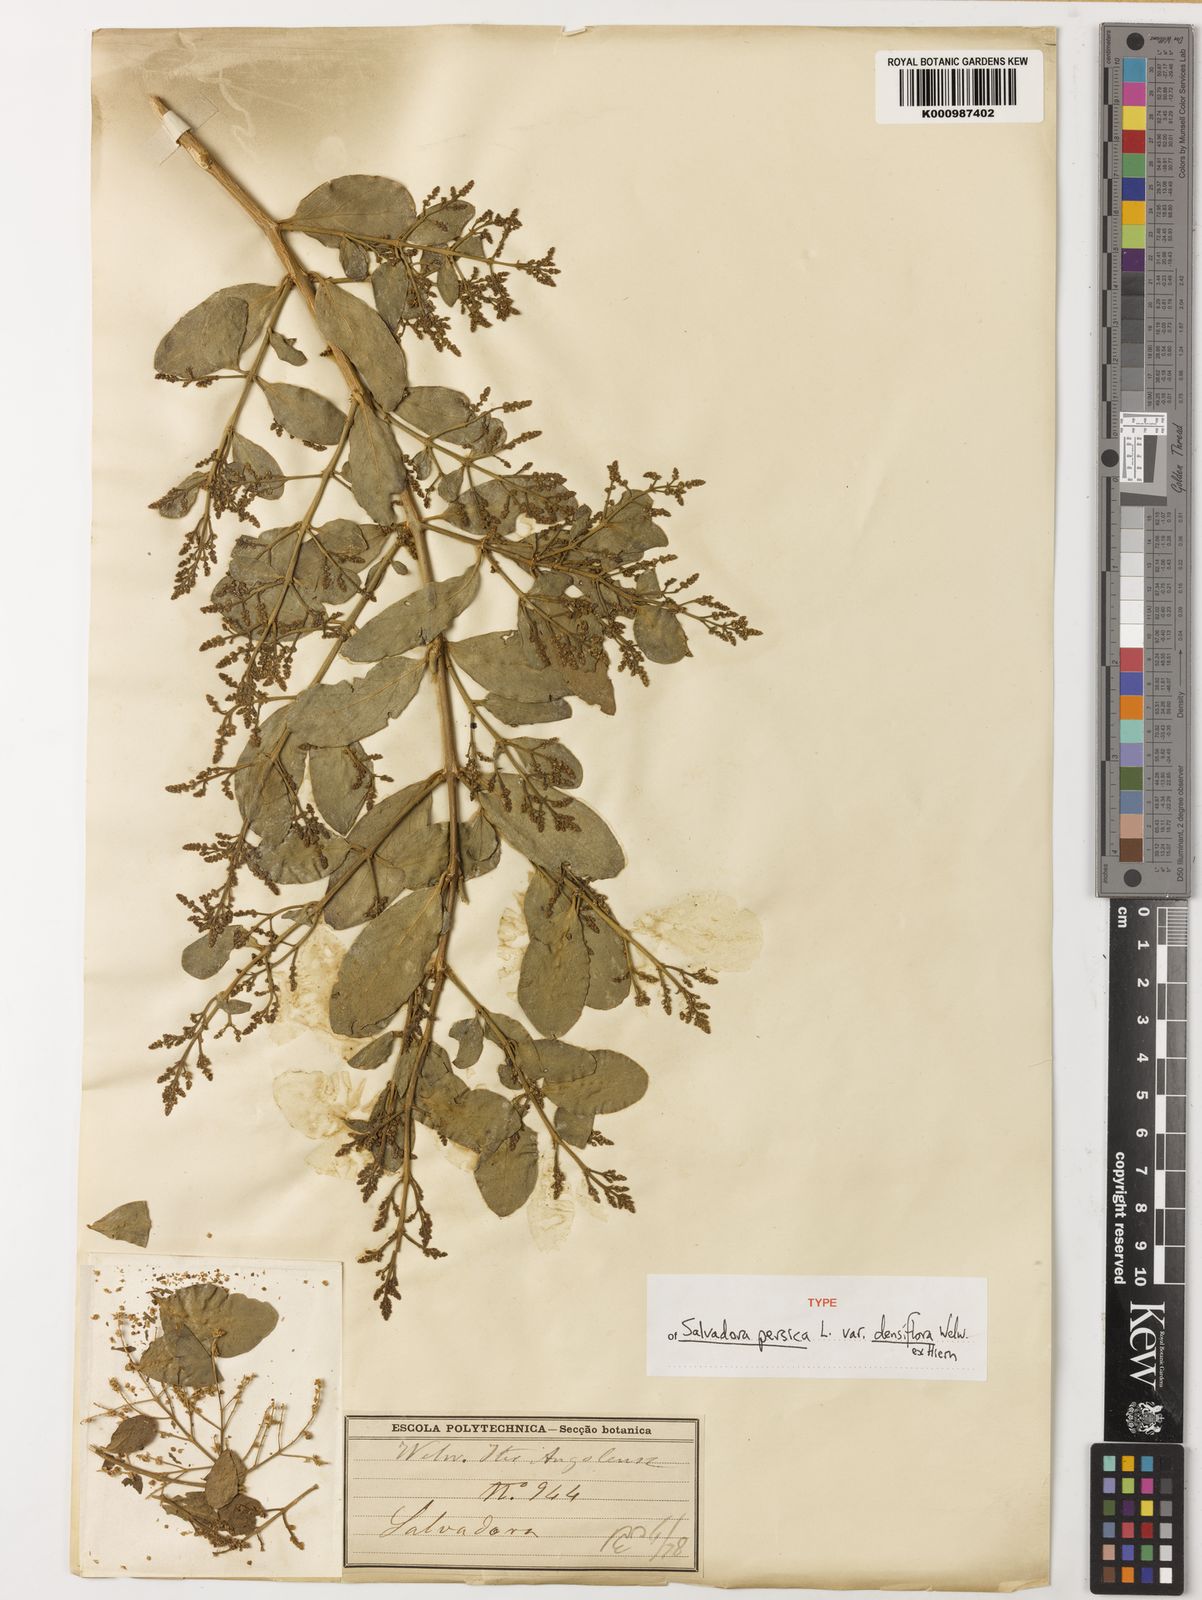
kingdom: Plantae
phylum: Tracheophyta
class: Magnoliopsida
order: Brassicales
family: Salvadoraceae
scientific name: Salvadoraceae
